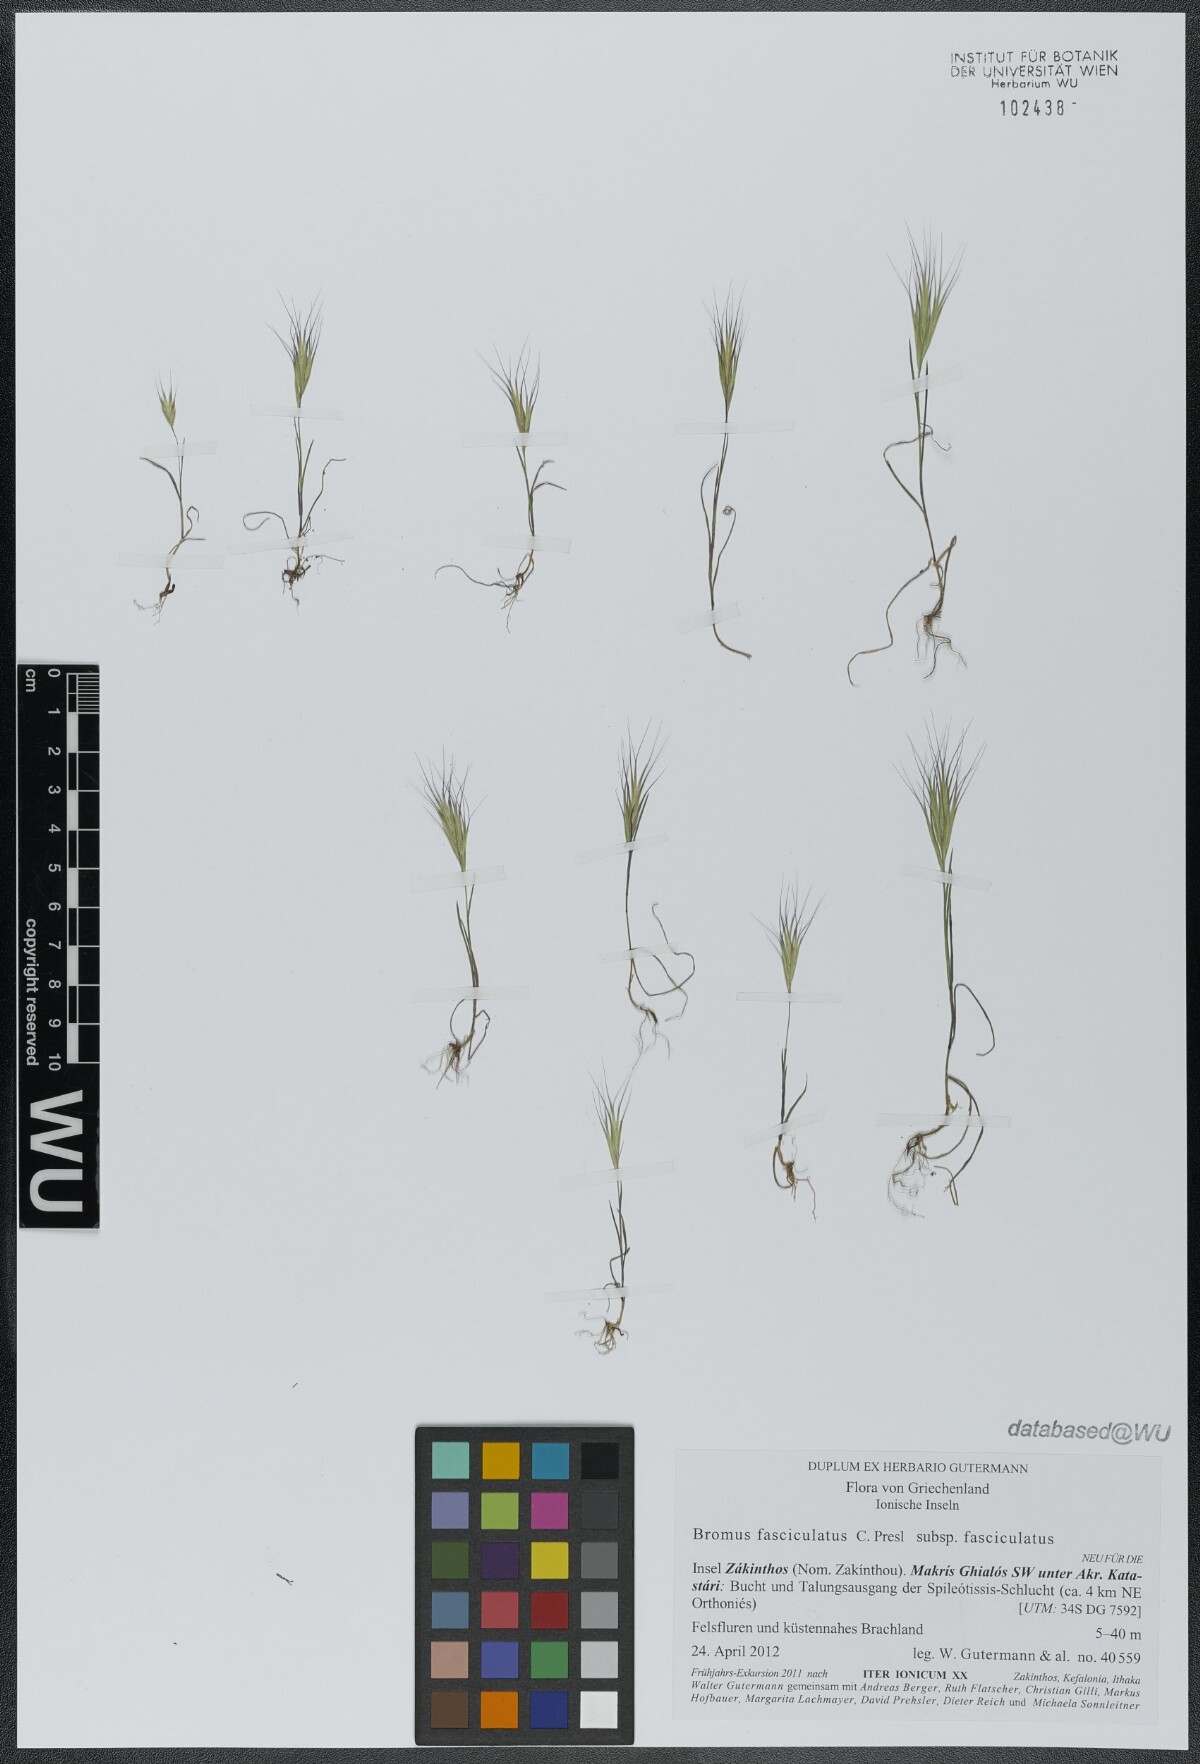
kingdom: Plantae
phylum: Tracheophyta
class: Liliopsida
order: Poales
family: Poaceae
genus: Bromus
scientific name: Bromus fasciculatus
